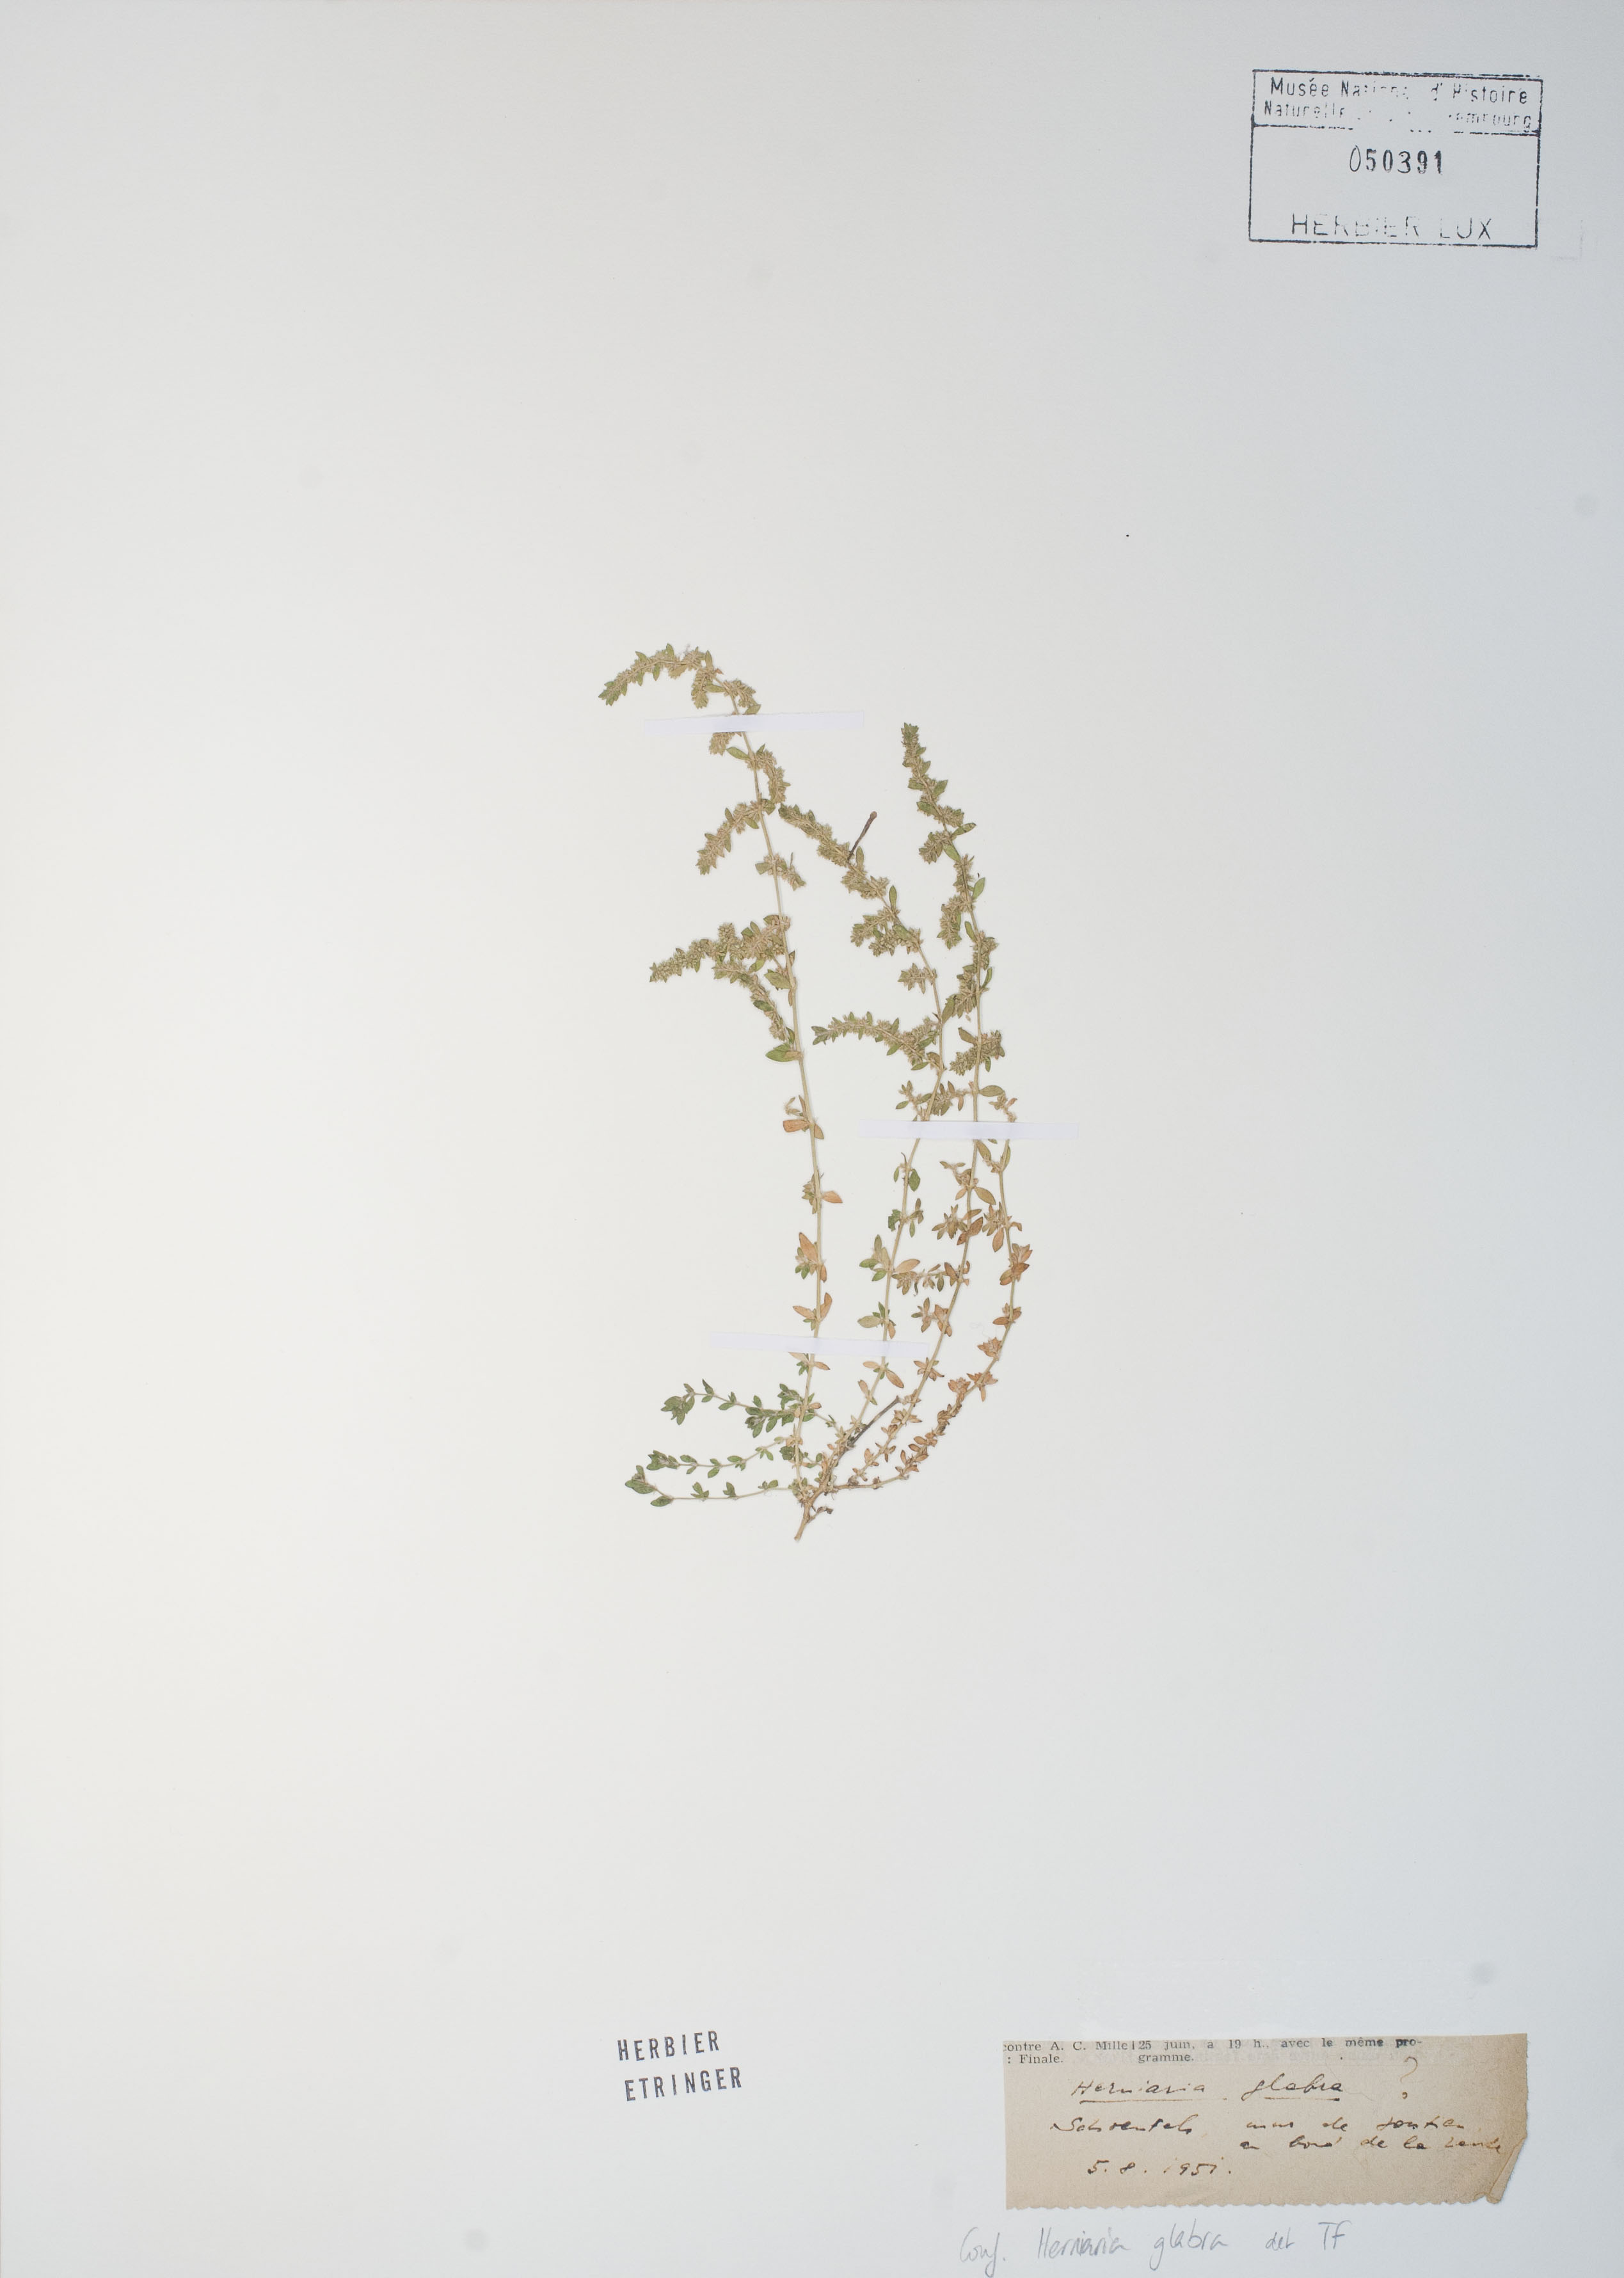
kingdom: Plantae
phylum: Tracheophyta
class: Magnoliopsida
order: Caryophyllales
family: Caryophyllaceae
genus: Herniaria
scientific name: Herniaria glabra
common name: Smooth rupturewort
